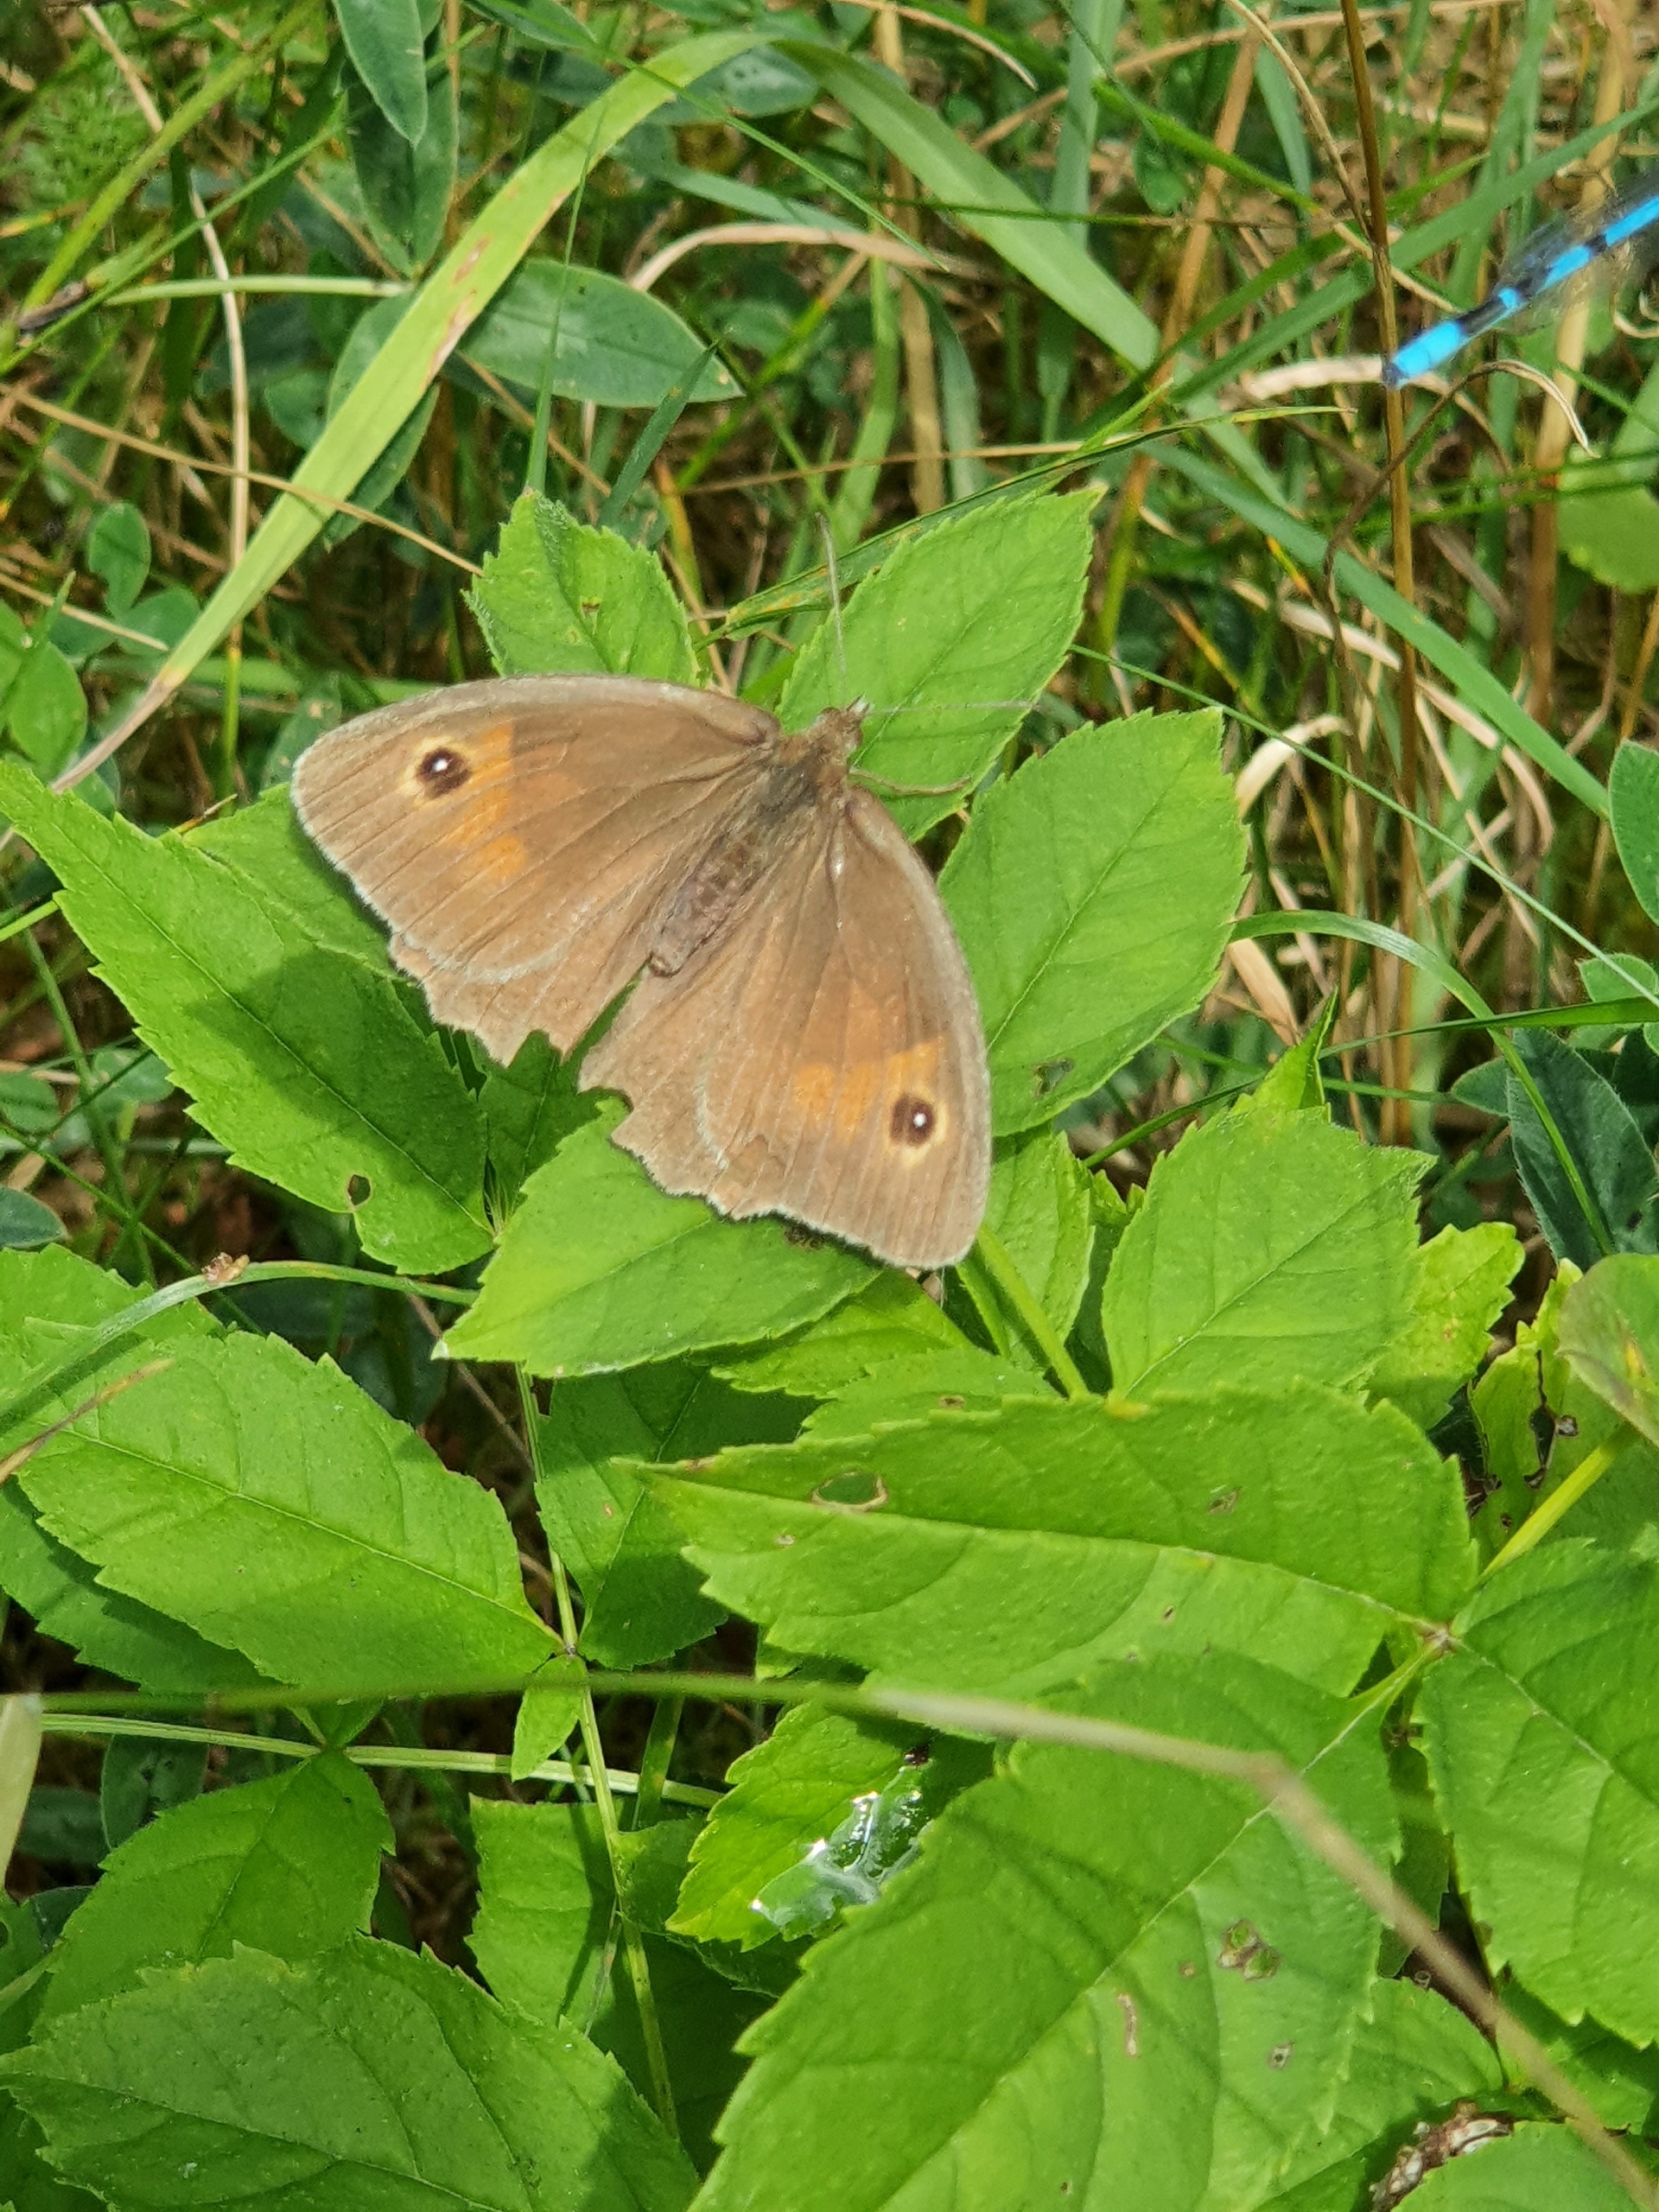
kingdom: Animalia
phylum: Arthropoda
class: Insecta
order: Lepidoptera
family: Nymphalidae
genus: Maniola
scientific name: Maniola jurtina
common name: Græsrandøje
